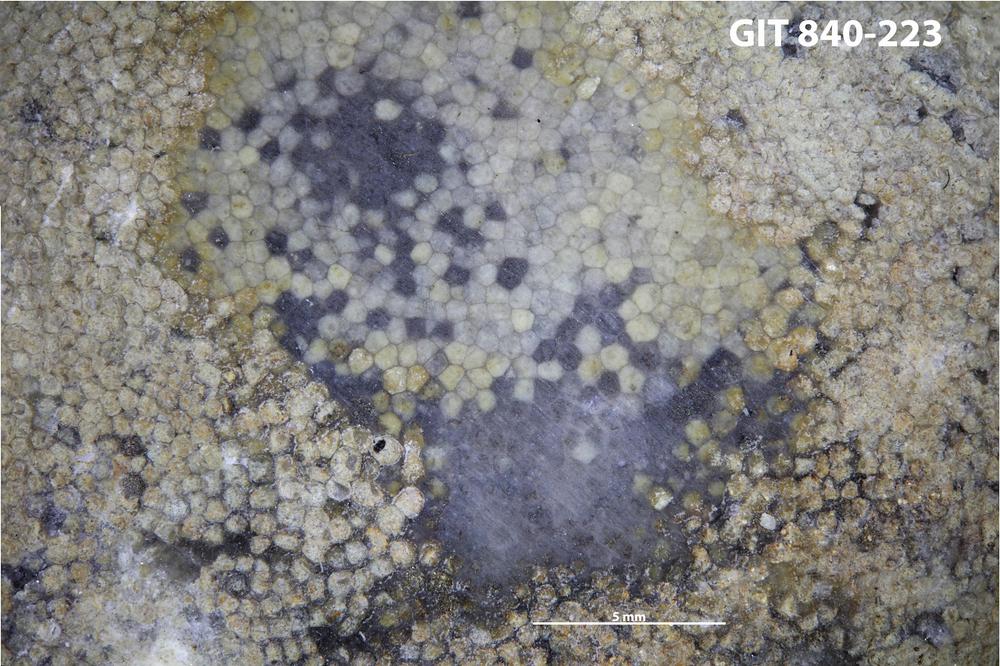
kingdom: Animalia
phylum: Bryozoa
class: Stenolaemata
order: Trepostomatida
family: Dianulitidae
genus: Dianulites
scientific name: Dianulites grandis
